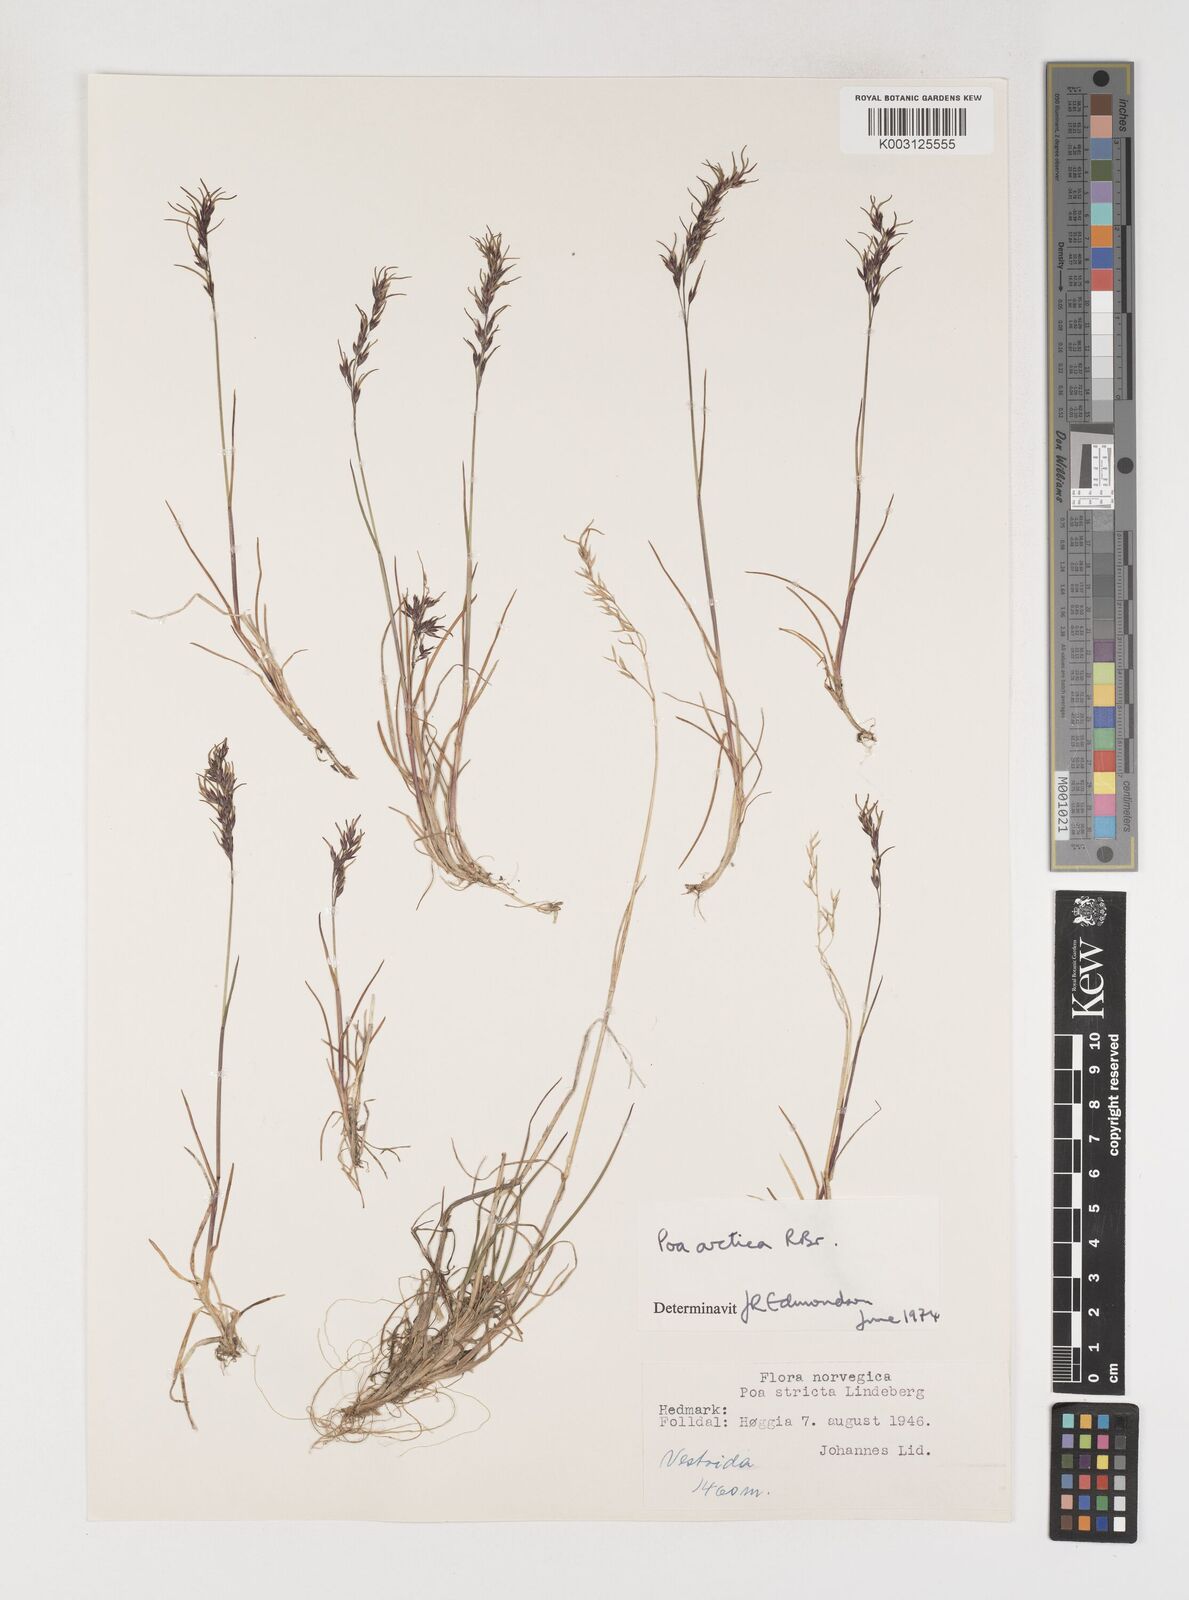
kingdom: Plantae
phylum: Tracheophyta
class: Liliopsida
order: Poales
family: Poaceae
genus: Poa
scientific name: Poa arctica
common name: Arctic bluegrass
